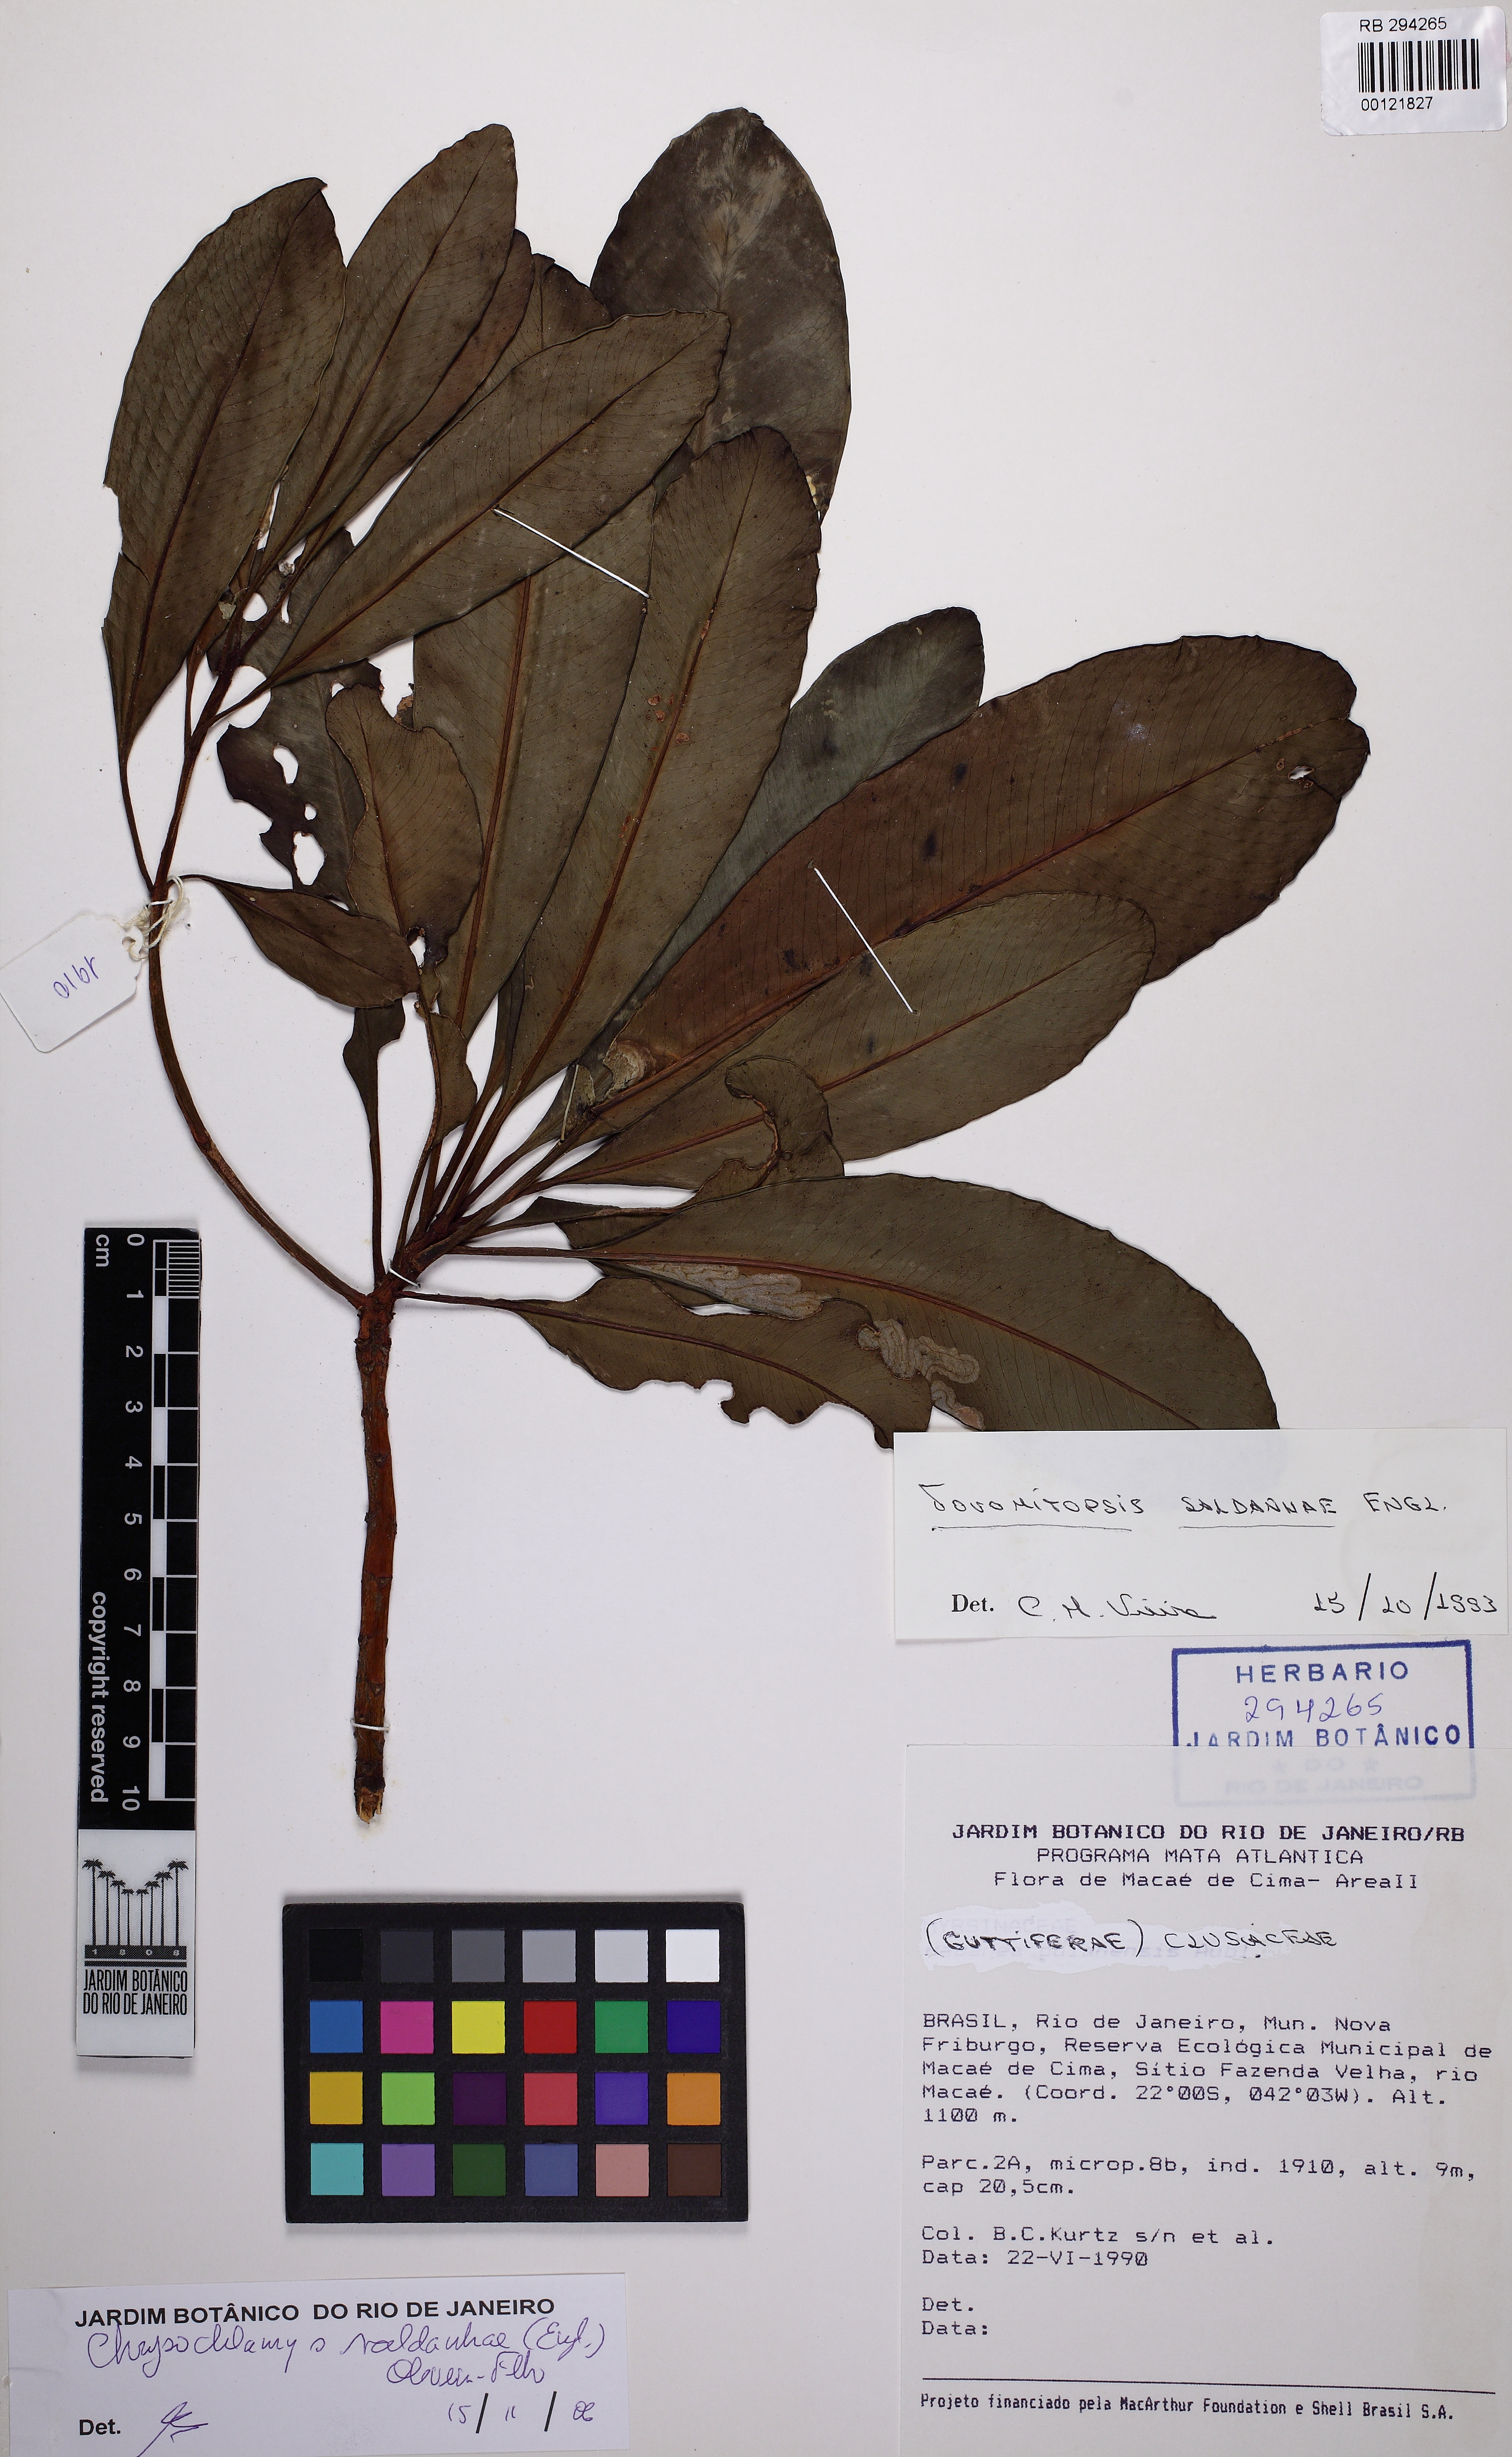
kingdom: Plantae
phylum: Tracheophyta
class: Magnoliopsida
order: Malpighiales
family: Clusiaceae
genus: Chrysochlamys
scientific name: Chrysochlamys saldanhae
